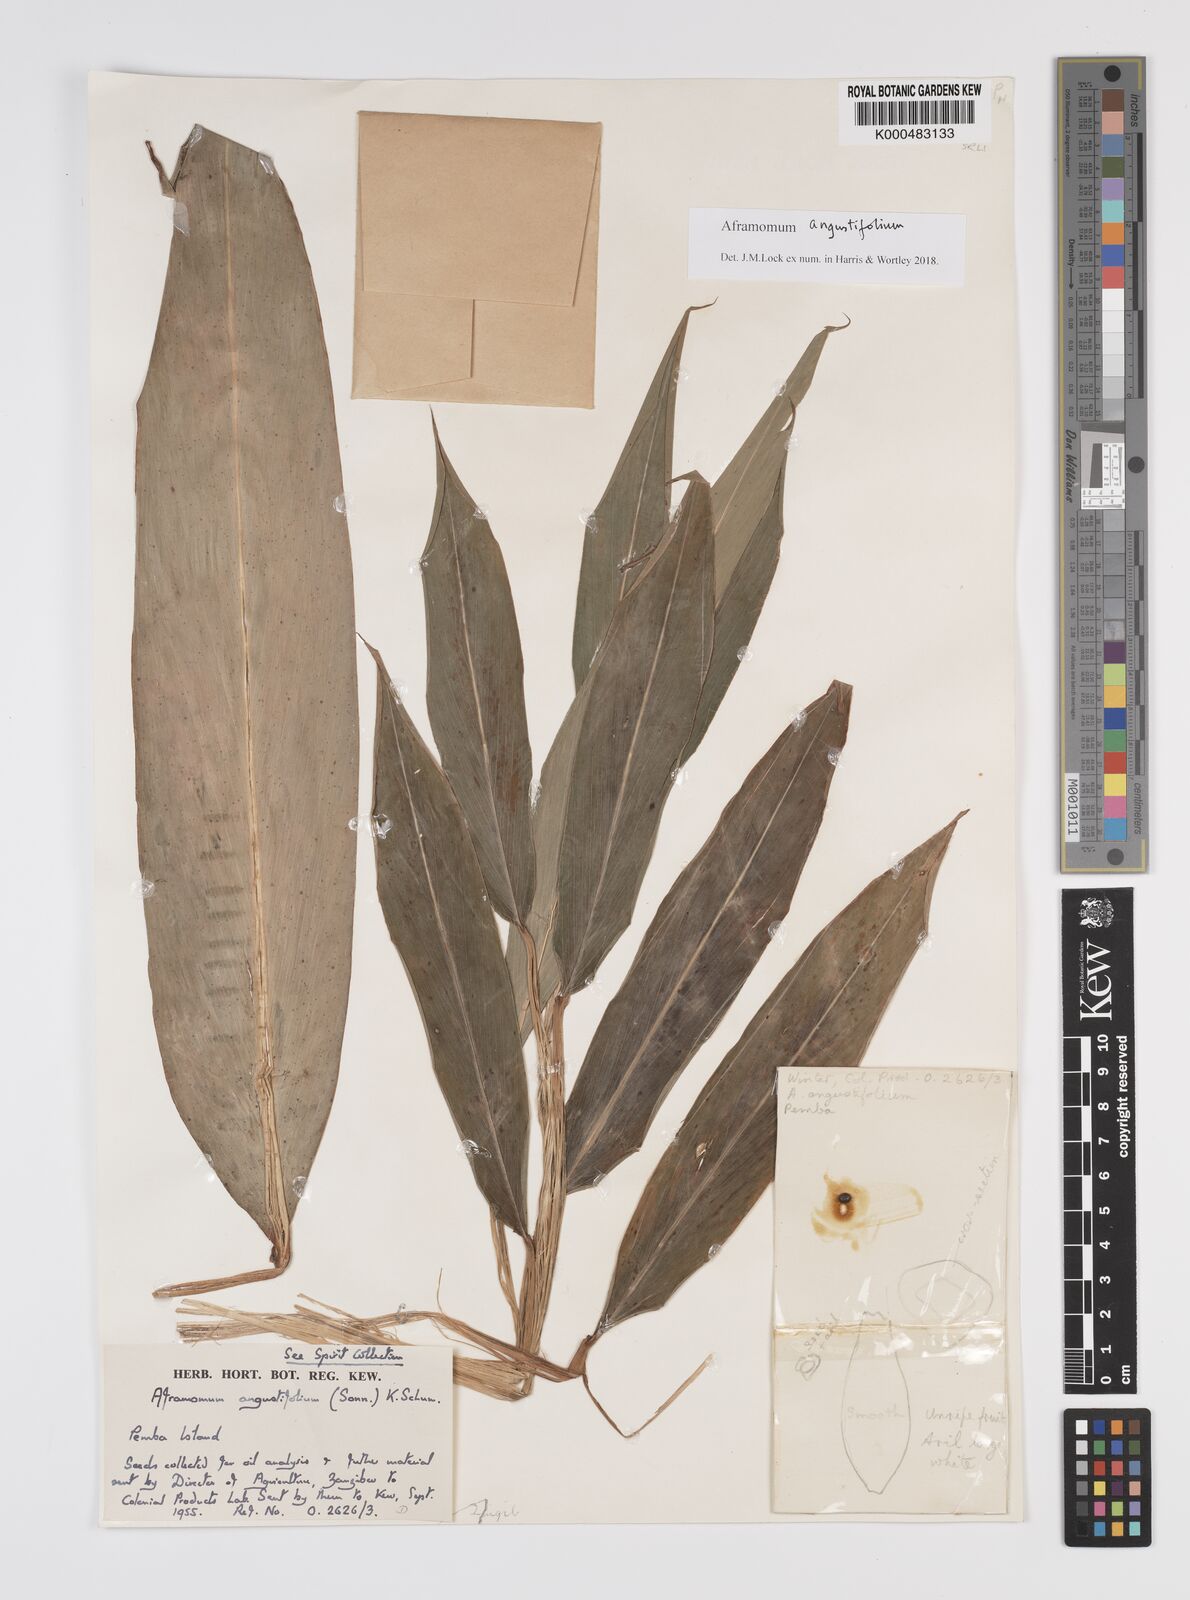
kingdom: Plantae
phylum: Tracheophyta
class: Liliopsida
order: Zingiberales
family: Zingiberaceae
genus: Aframomum
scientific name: Aframomum angustifolium
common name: Guinea grains
